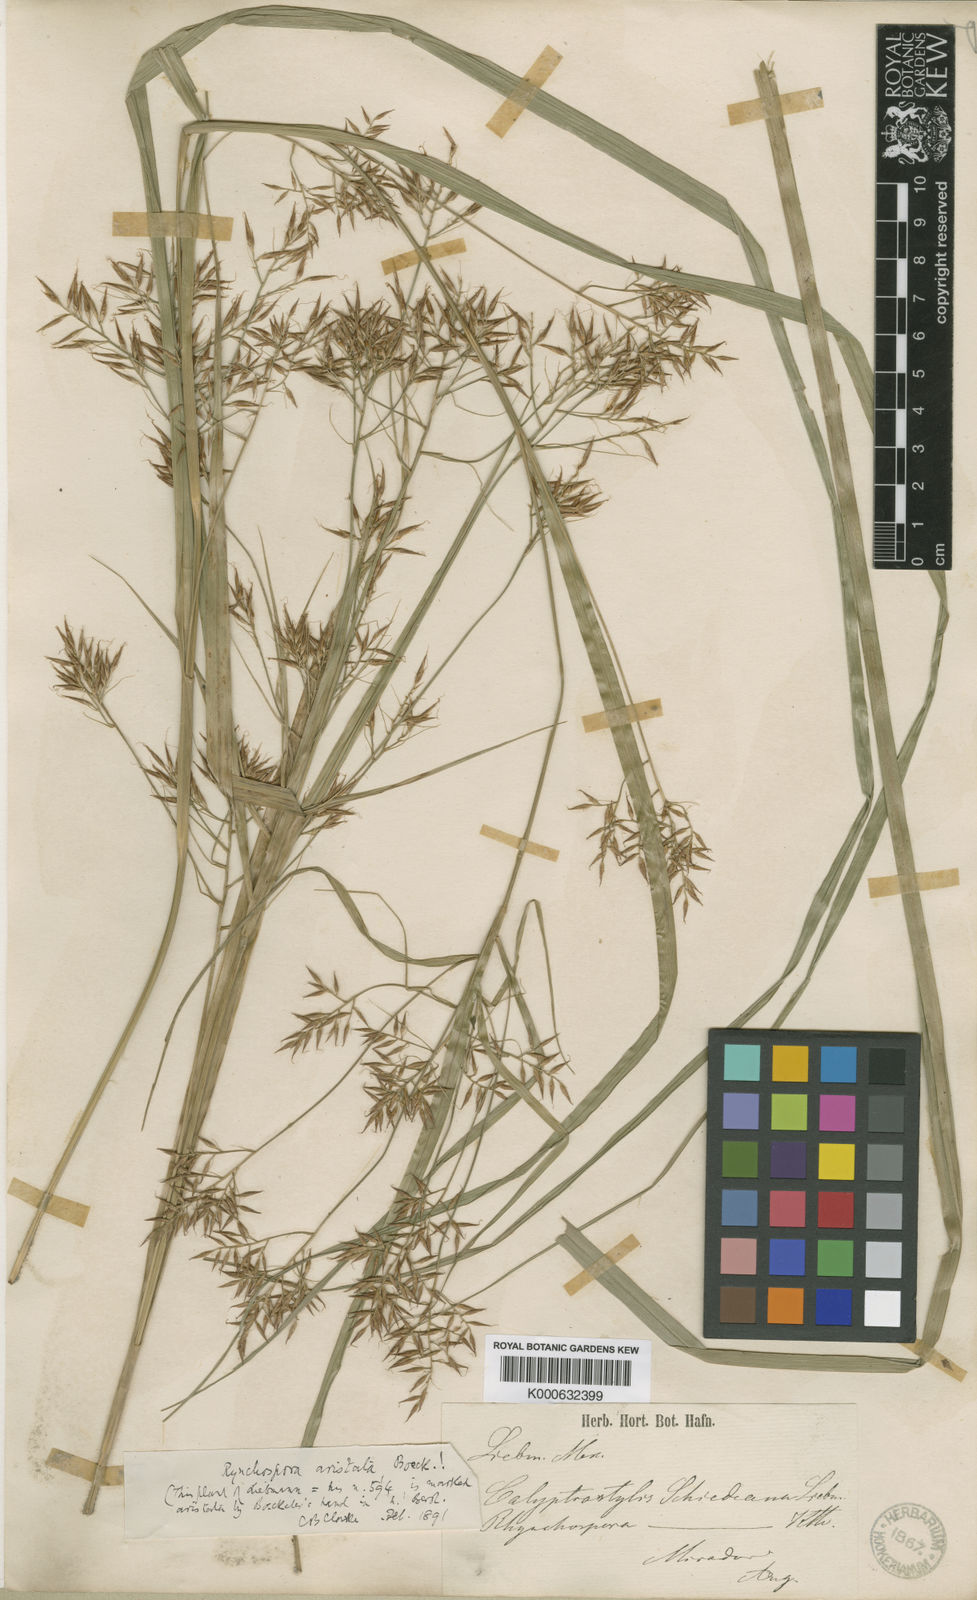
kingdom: Plantae
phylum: Tracheophyta
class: Liliopsida
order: Poales
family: Cyperaceae
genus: Rhynchospora
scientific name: Rhynchospora aristata
